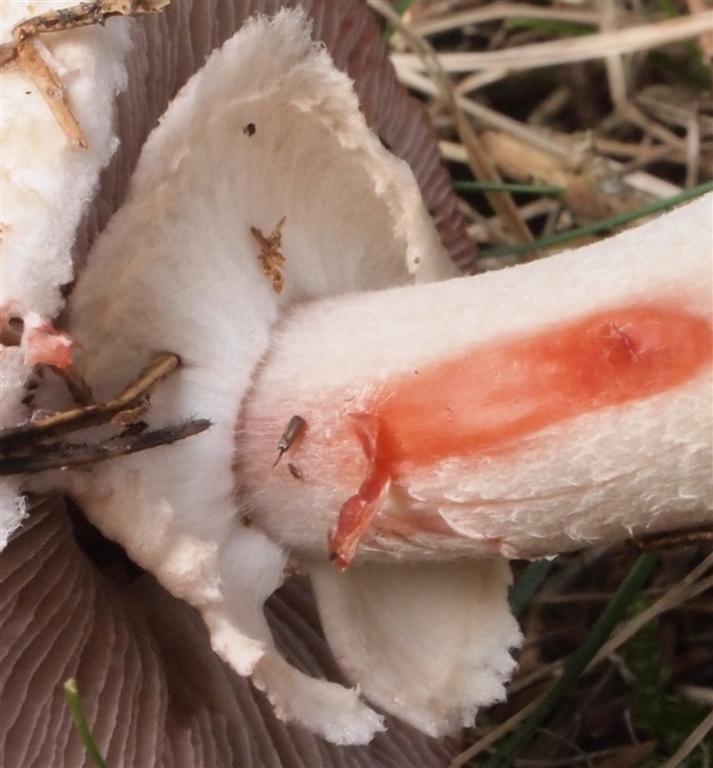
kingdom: Fungi
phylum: Basidiomycota
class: Agaricomycetes
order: Agaricales
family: Agaricaceae
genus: Agaricus
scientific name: Agaricus sylvaticus
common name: lille blod-champignon
